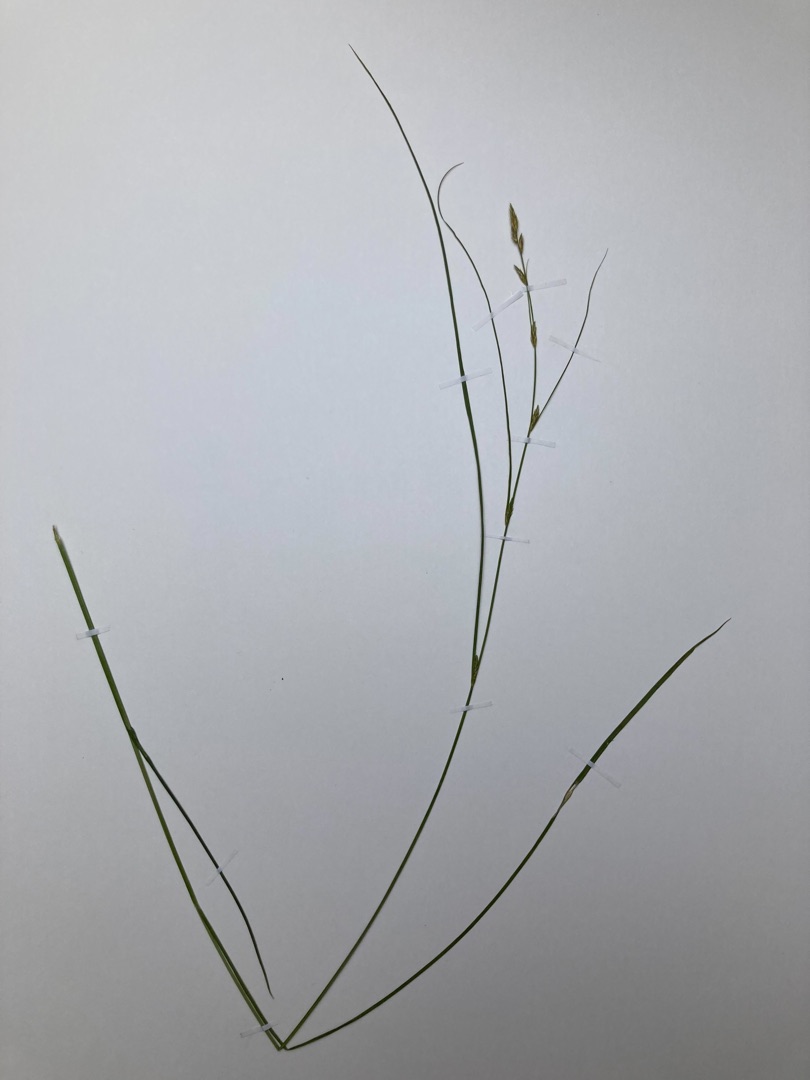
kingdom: Plantae
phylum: Tracheophyta
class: Liliopsida
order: Poales
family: Cyperaceae
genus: Carex
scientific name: Carex remota
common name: Akselblomstret star
